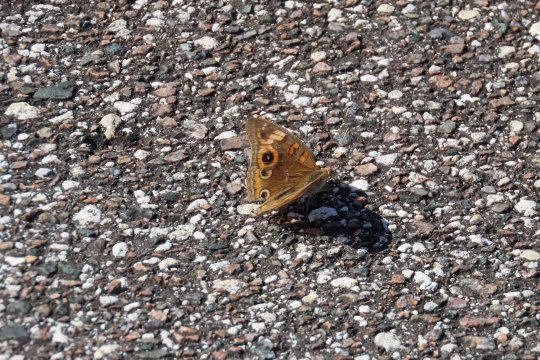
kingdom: Animalia
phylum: Arthropoda
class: Insecta
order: Lepidoptera
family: Nymphalidae
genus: Junonia
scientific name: Junonia evarete
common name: Mangrove Buckeye
